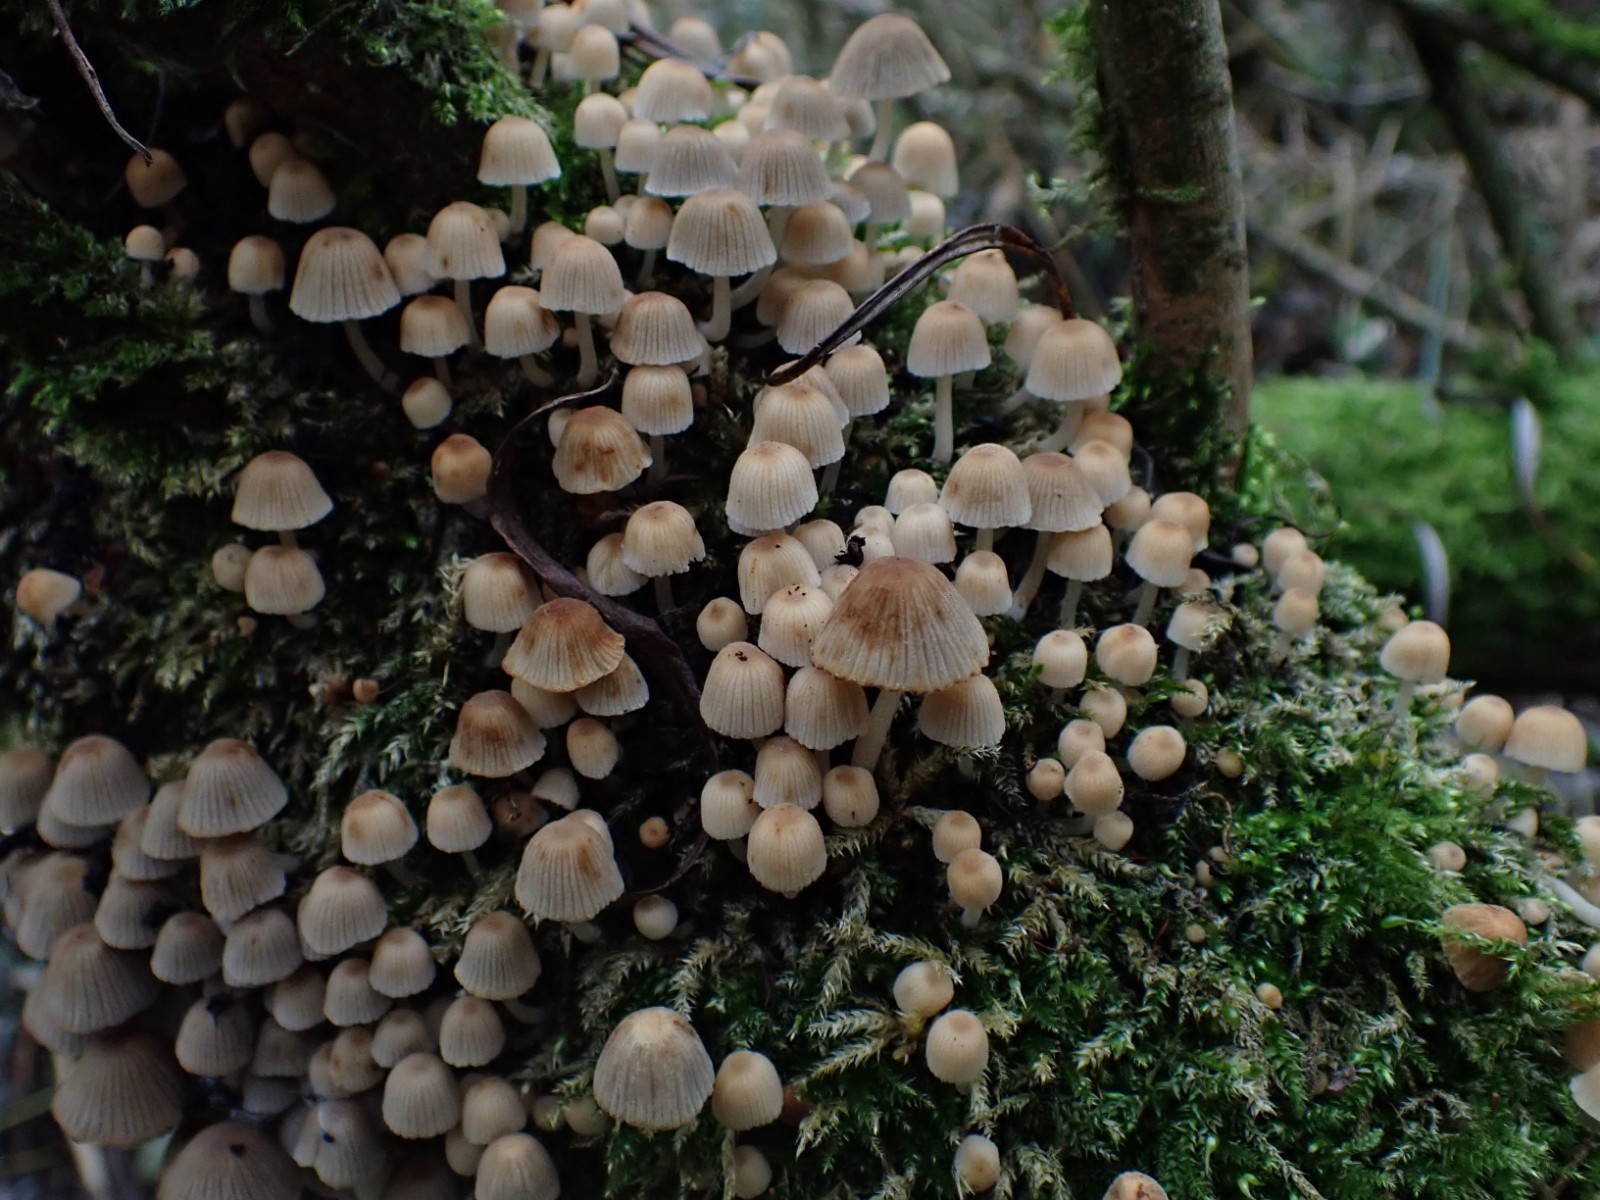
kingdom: Fungi
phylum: Basidiomycota
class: Agaricomycetes
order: Agaricales
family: Psathyrellaceae
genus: Coprinellus
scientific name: Coprinellus disseminatus
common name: bredsået blækhat
